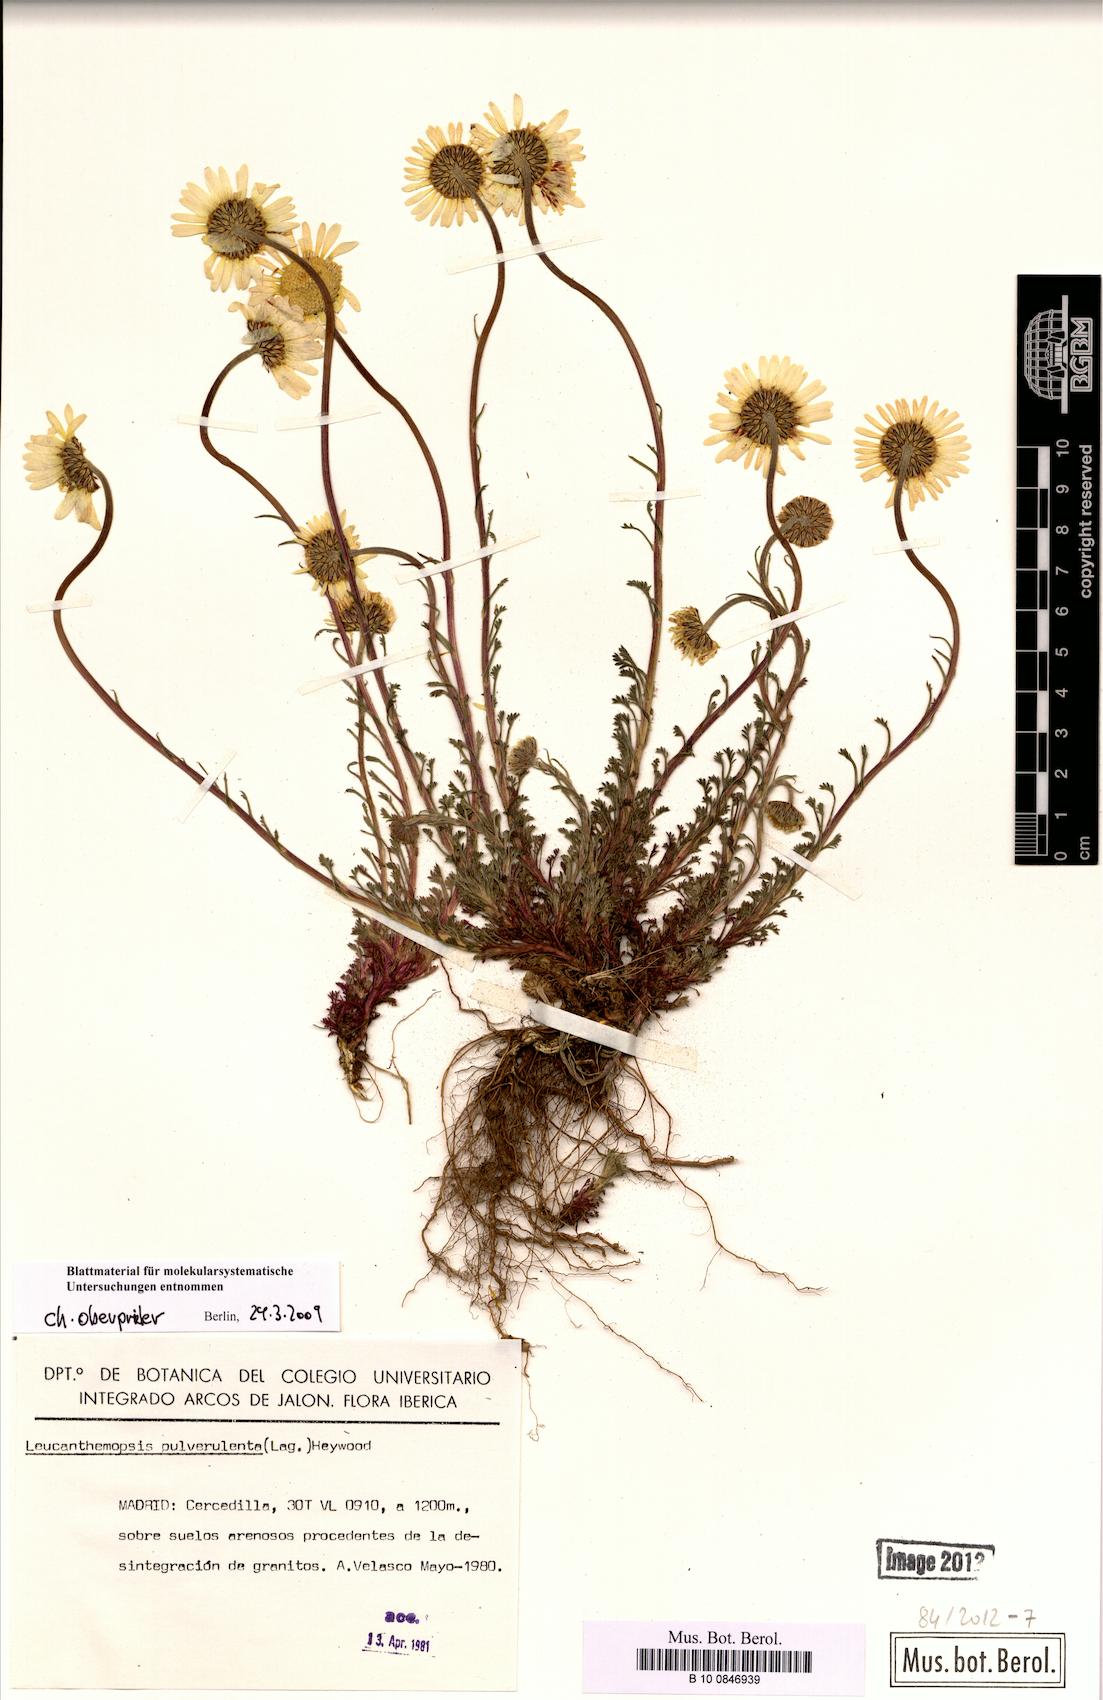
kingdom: Plantae
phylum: Tracheophyta
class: Magnoliopsida
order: Asterales
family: Asteraceae
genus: Leucanthemopsis
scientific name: Leucanthemopsis pulverulenta
